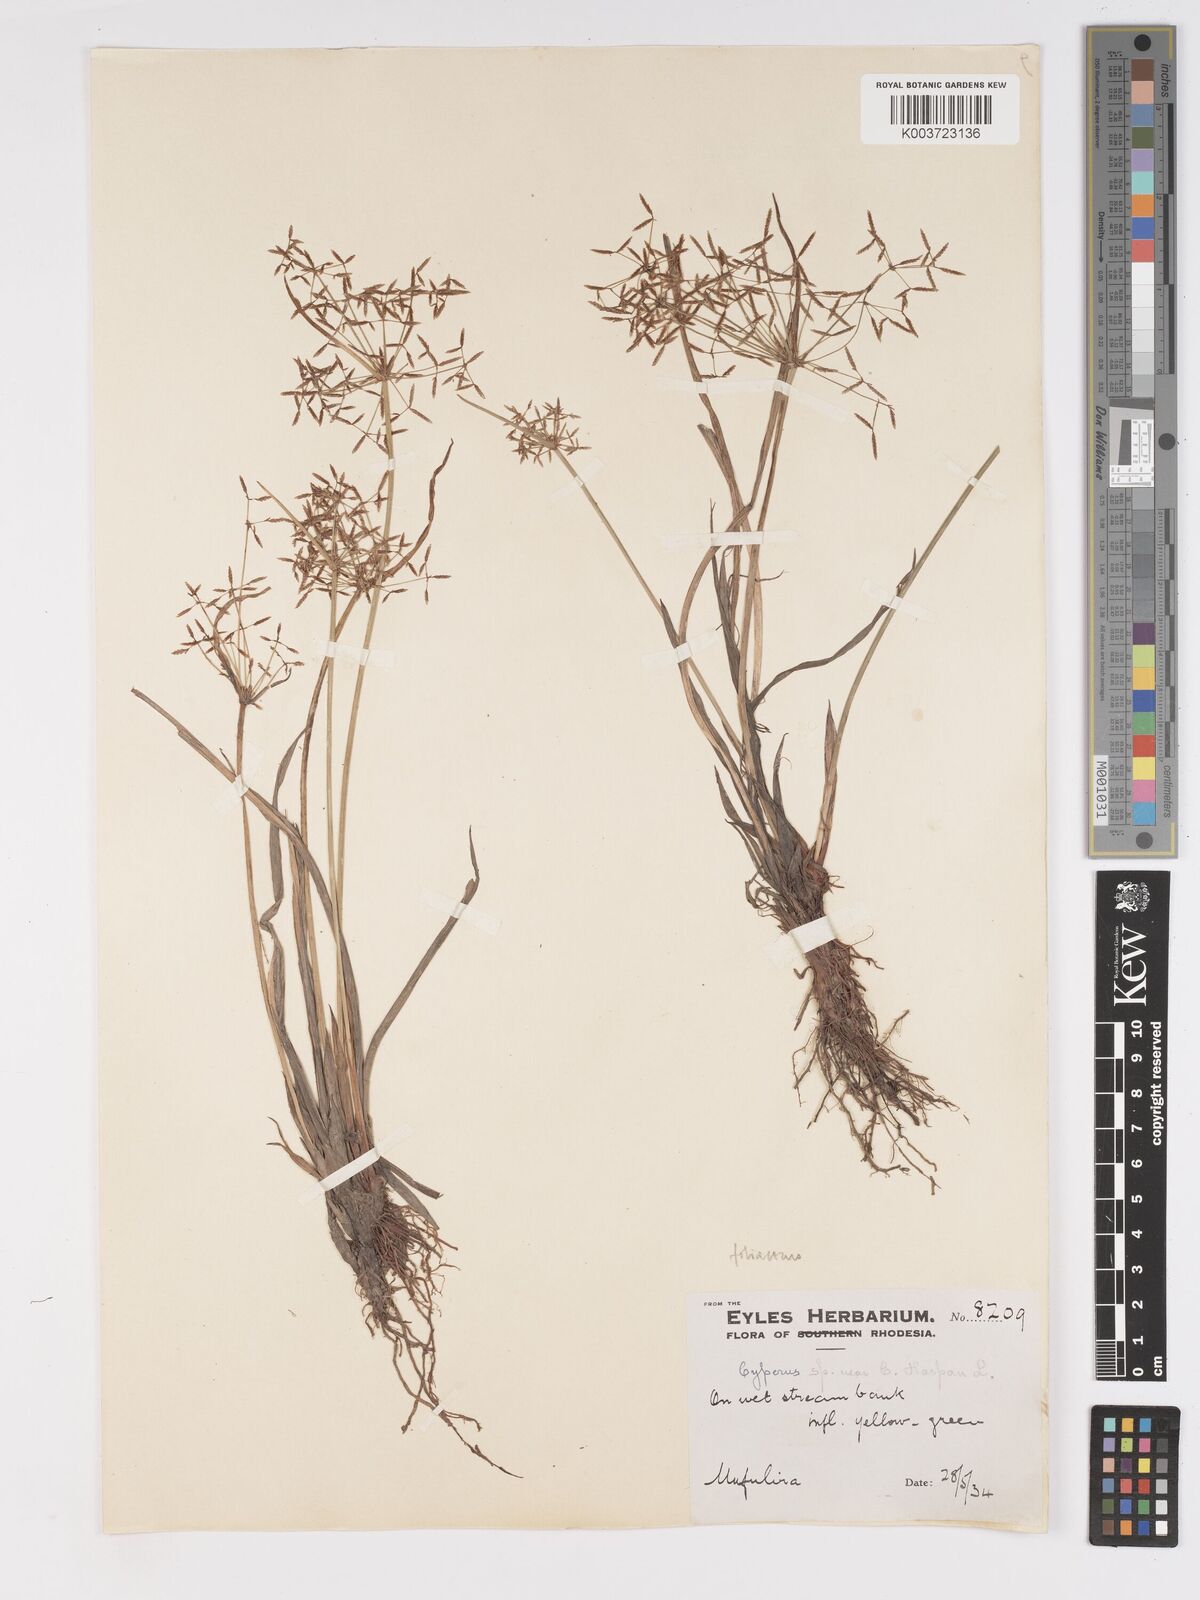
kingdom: Plantae
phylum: Tracheophyta
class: Liliopsida
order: Poales
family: Cyperaceae
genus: Cyperus
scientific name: Cyperus haspan
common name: Haspan flatsedge
